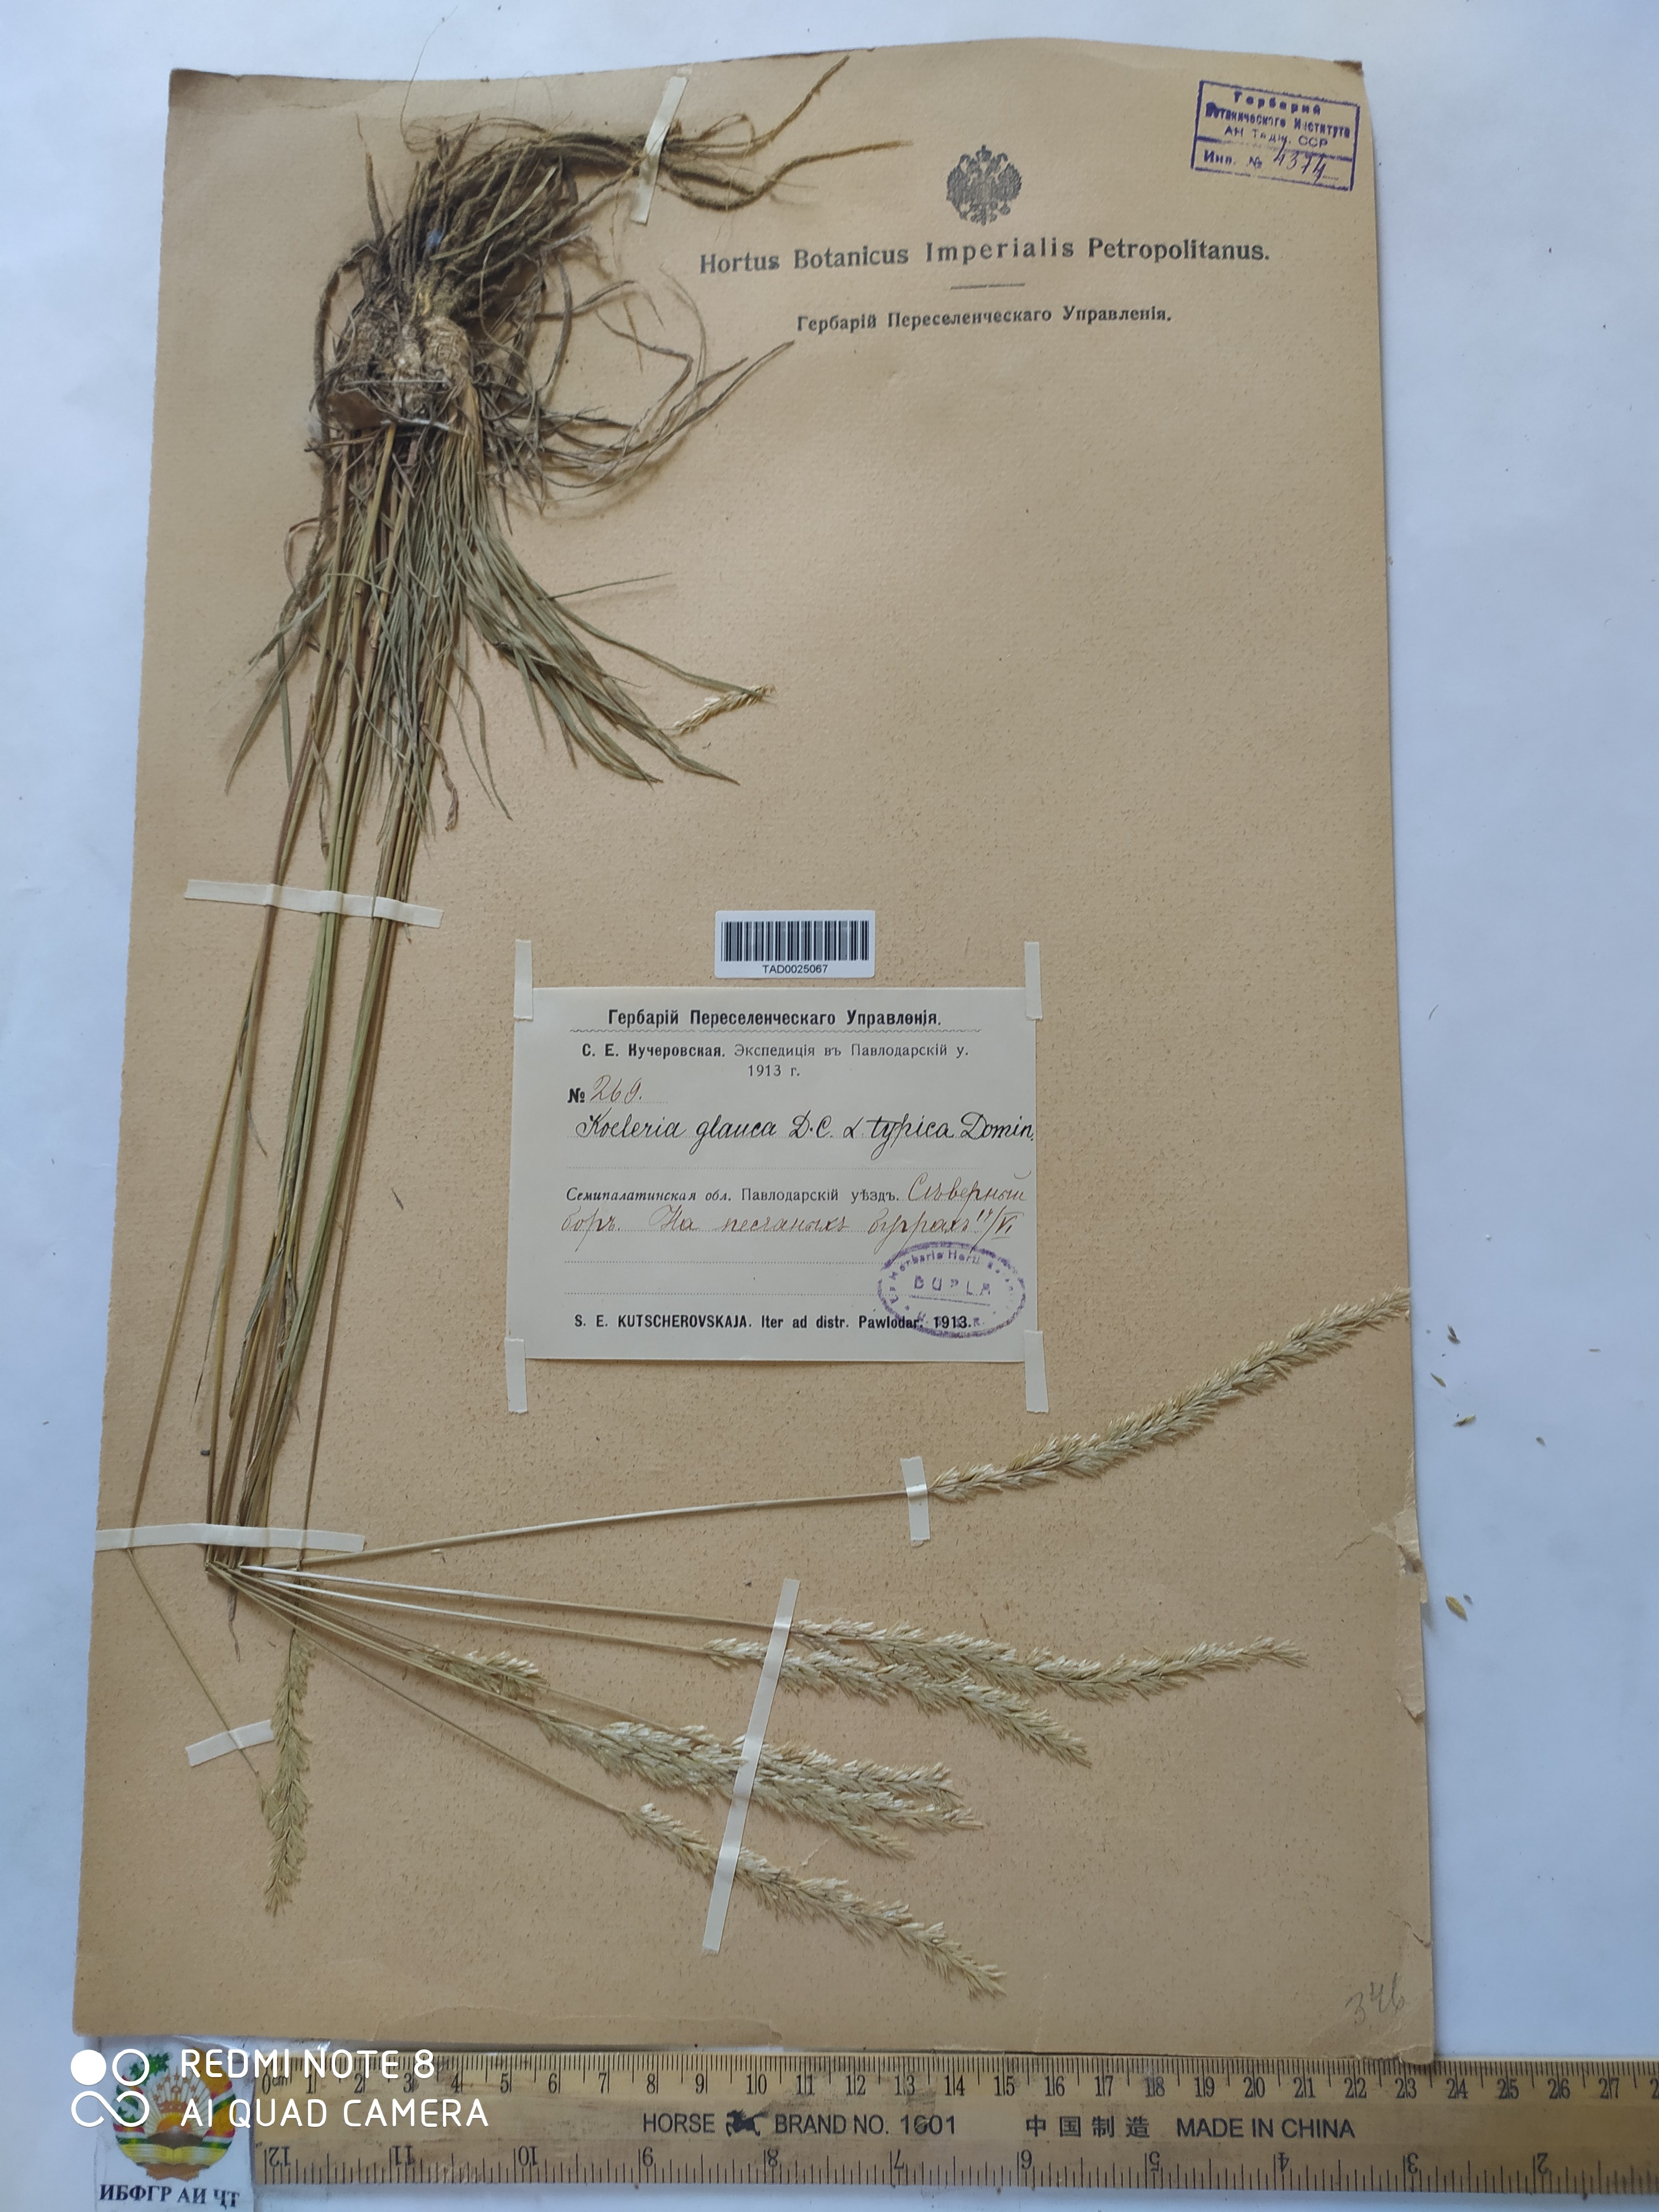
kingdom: Plantae
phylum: Tracheophyta
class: Liliopsida
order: Poales
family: Poaceae
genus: Koeleria
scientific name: Koeleria glauca
